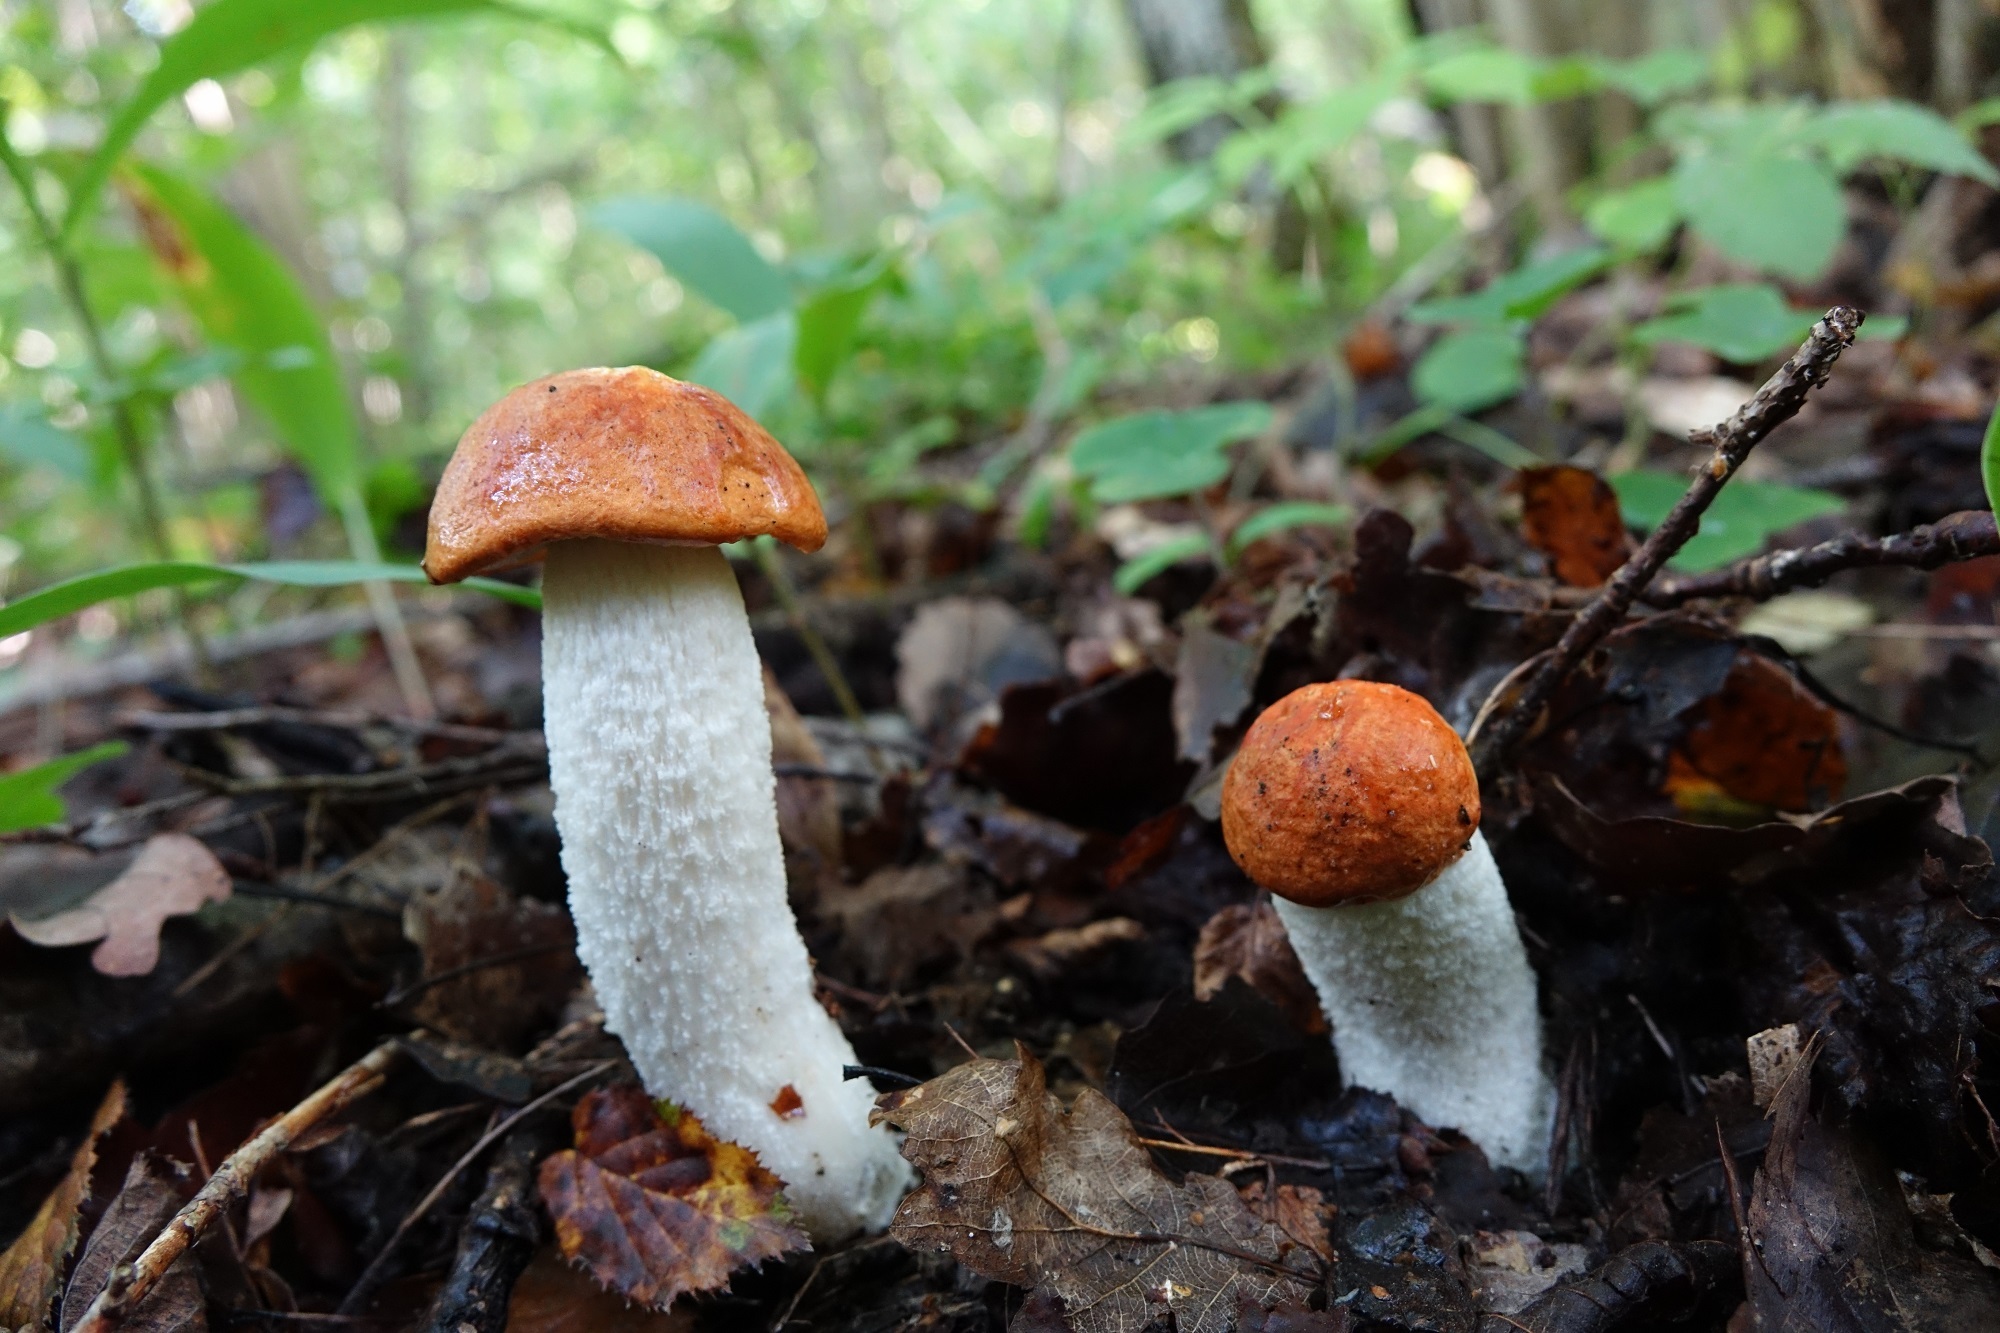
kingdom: Fungi
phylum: Basidiomycota
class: Agaricomycetes
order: Boletales
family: Boletaceae
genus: Leccinum
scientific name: Leccinum albostipitatum
